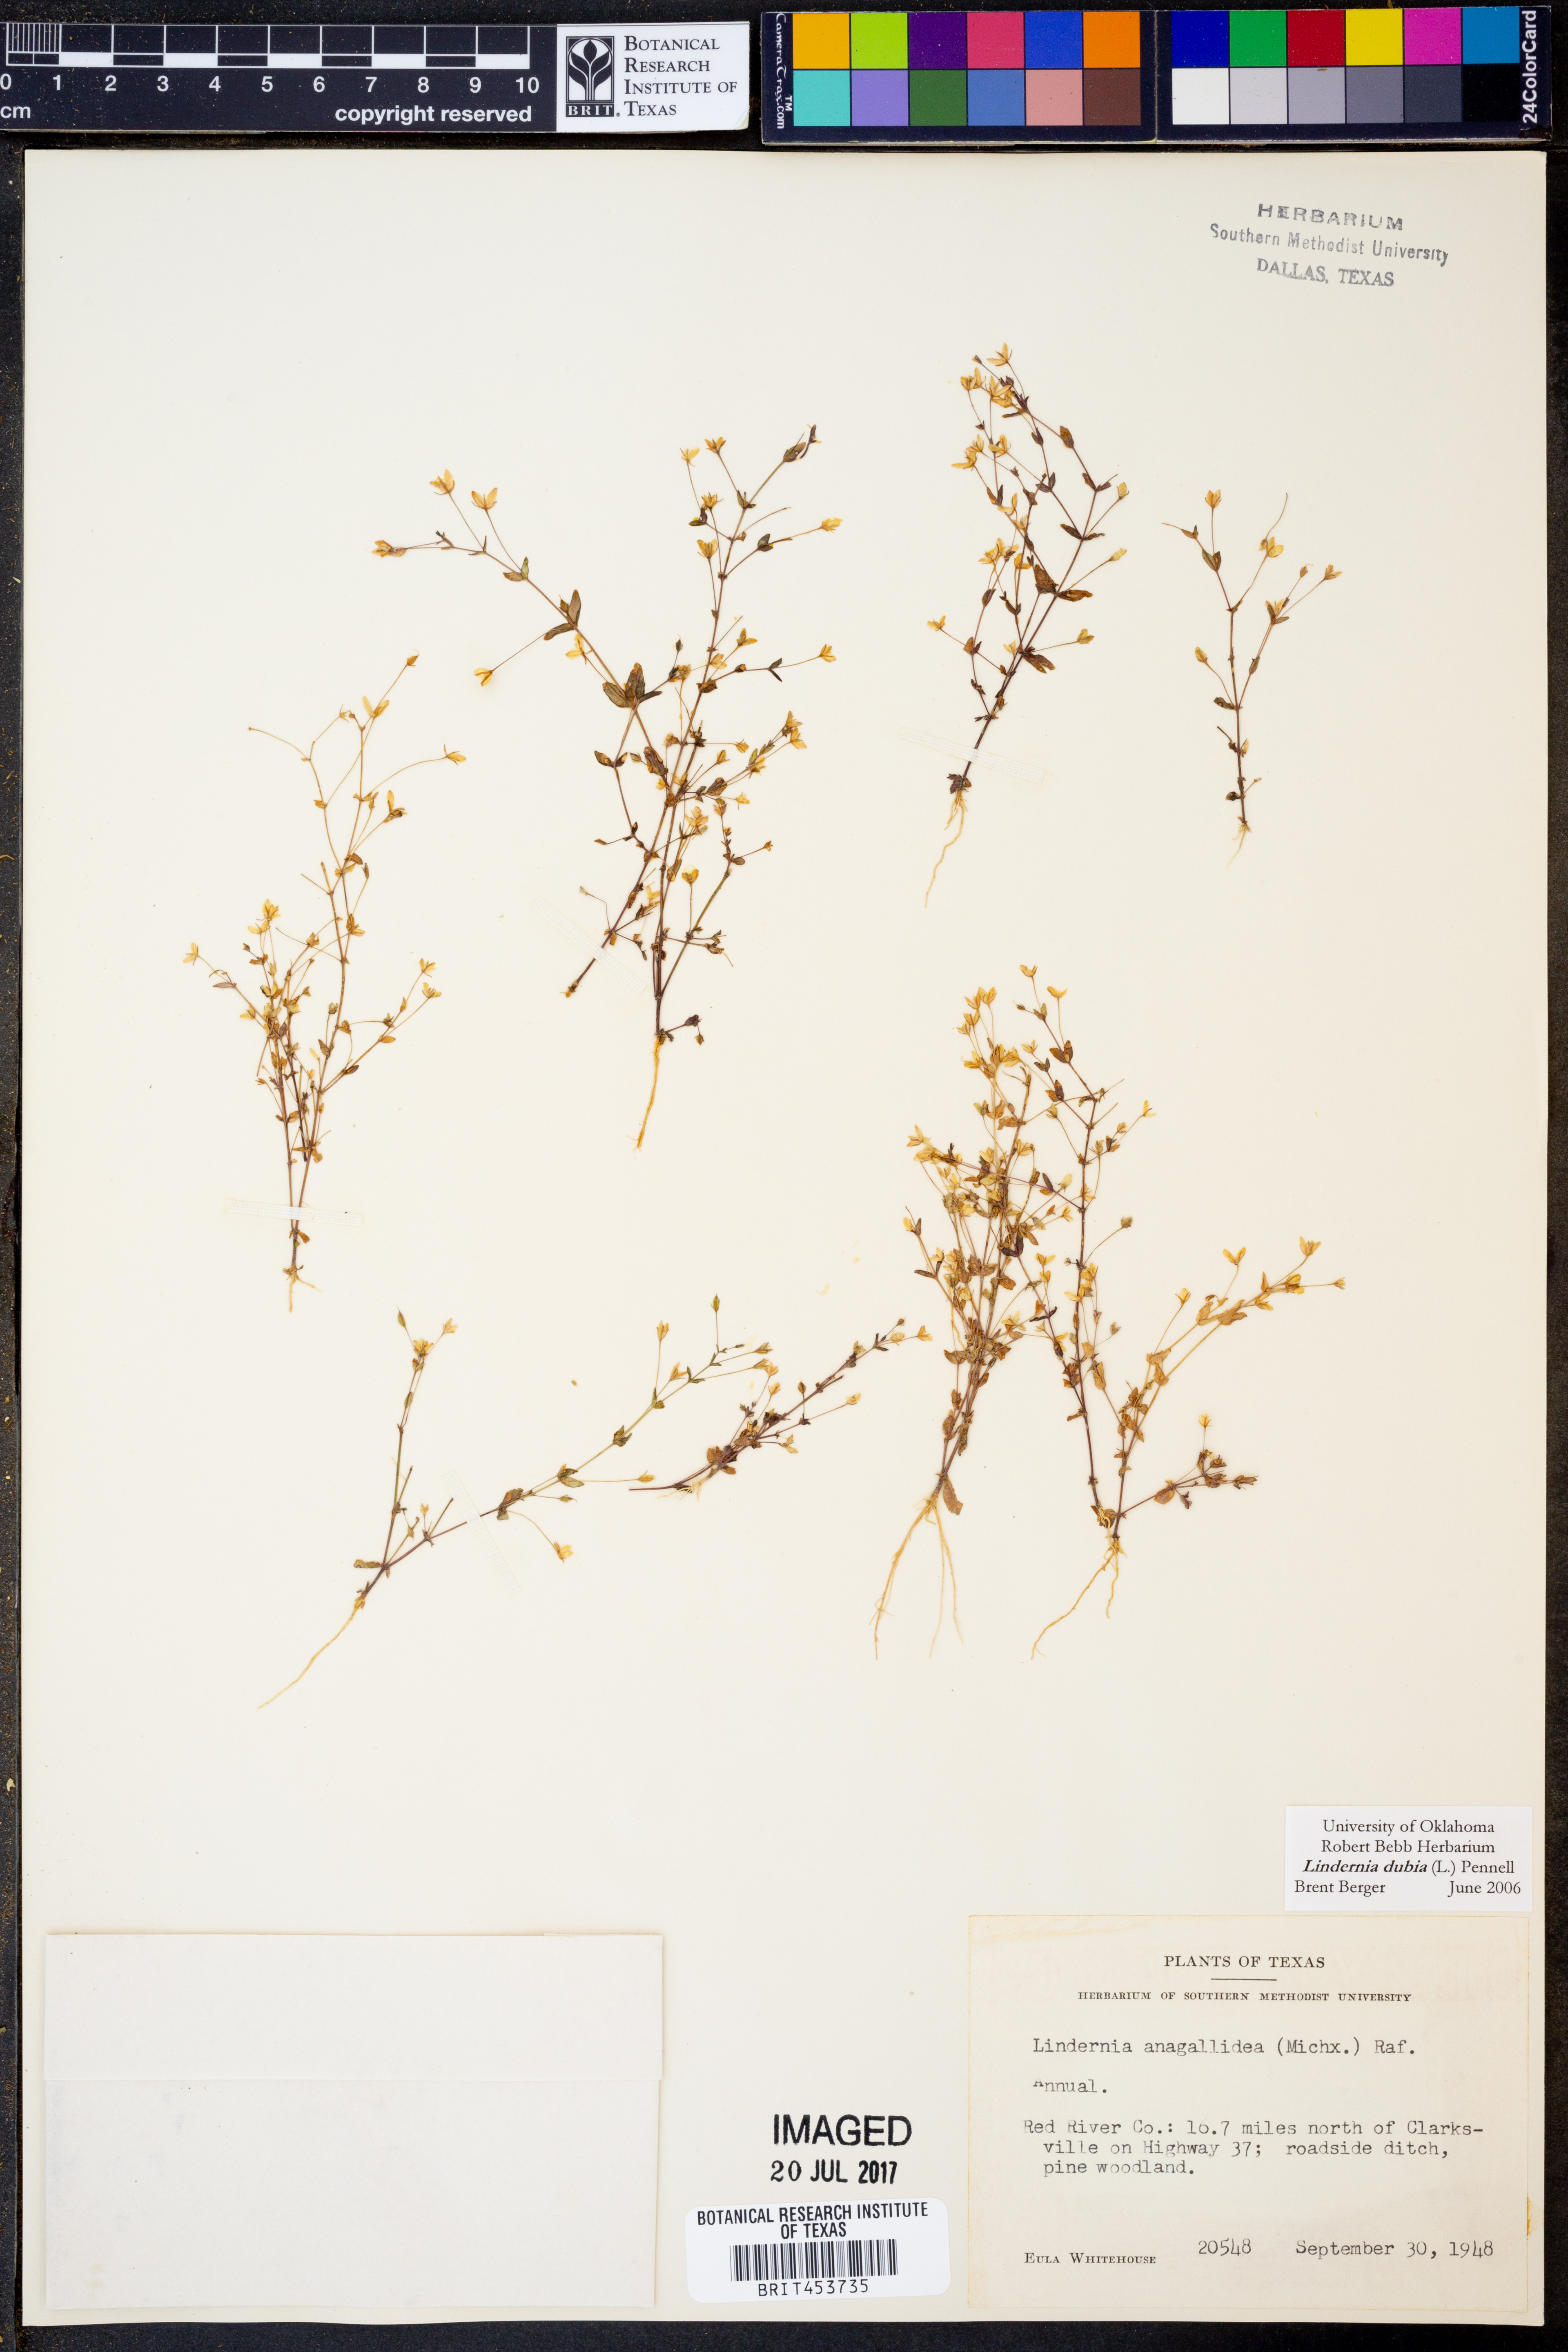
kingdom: Plantae
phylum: Tracheophyta
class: Magnoliopsida
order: Lamiales
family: Linderniaceae
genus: Lindernia
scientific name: Lindernia dubia
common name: Annual false pimpernel
